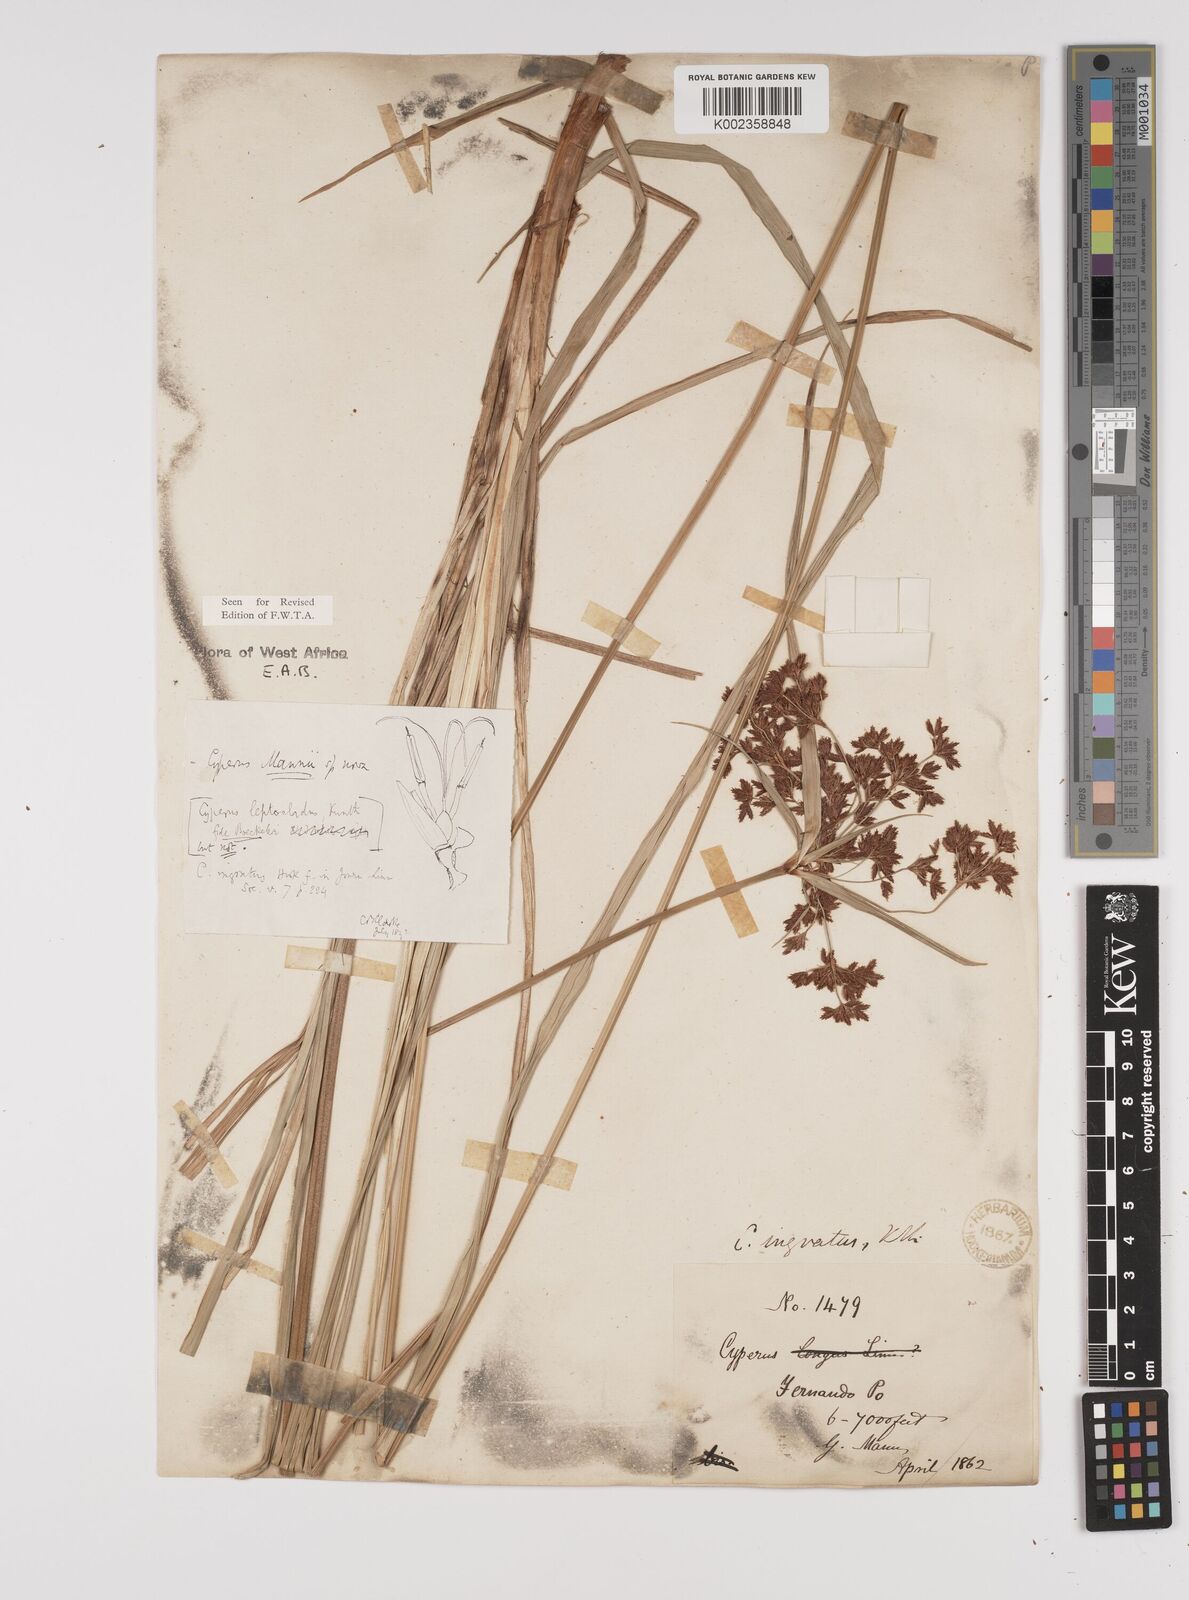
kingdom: Plantae
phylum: Tracheophyta
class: Liliopsida
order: Poales
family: Cyperaceae
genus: Cyperus
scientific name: Cyperus baronii
